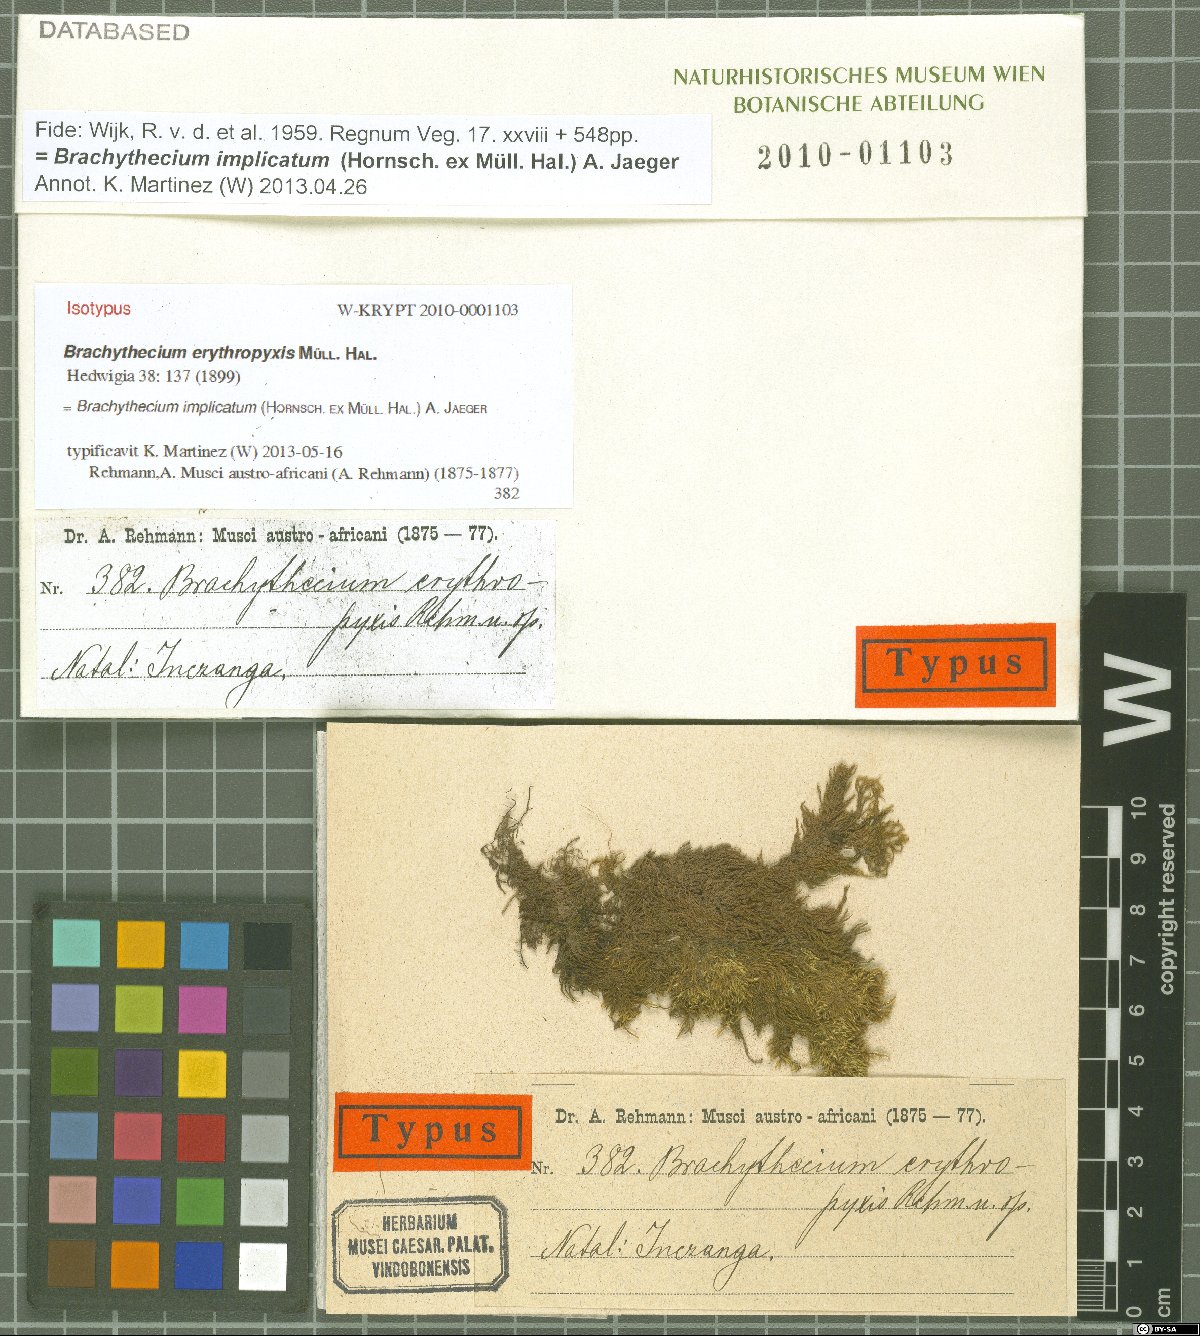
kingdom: Plantae
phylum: Bryophyta
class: Bryopsida
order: Hypnales
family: Brachytheciaceae
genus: Brachythecium
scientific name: Brachythecium ruderale
